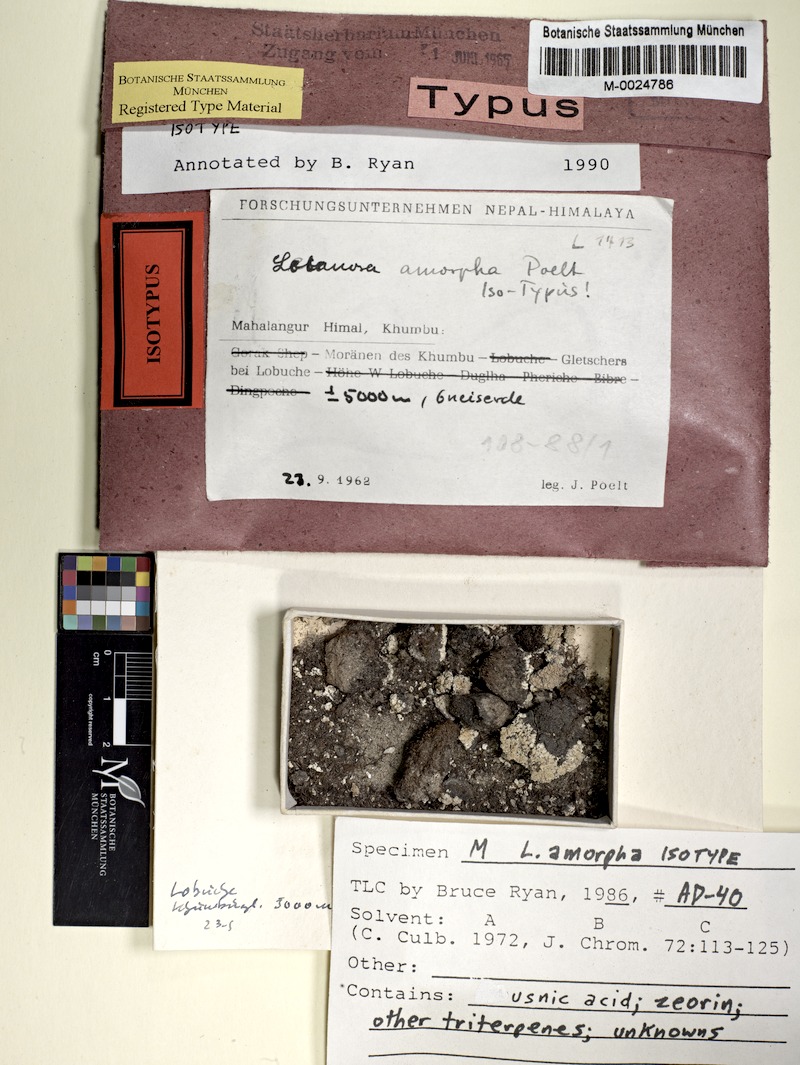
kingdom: Fungi
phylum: Ascomycota
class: Lecanoromycetes
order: Lecanorales
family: Lecanoraceae
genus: Lecanora
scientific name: Lecanora amorpha
